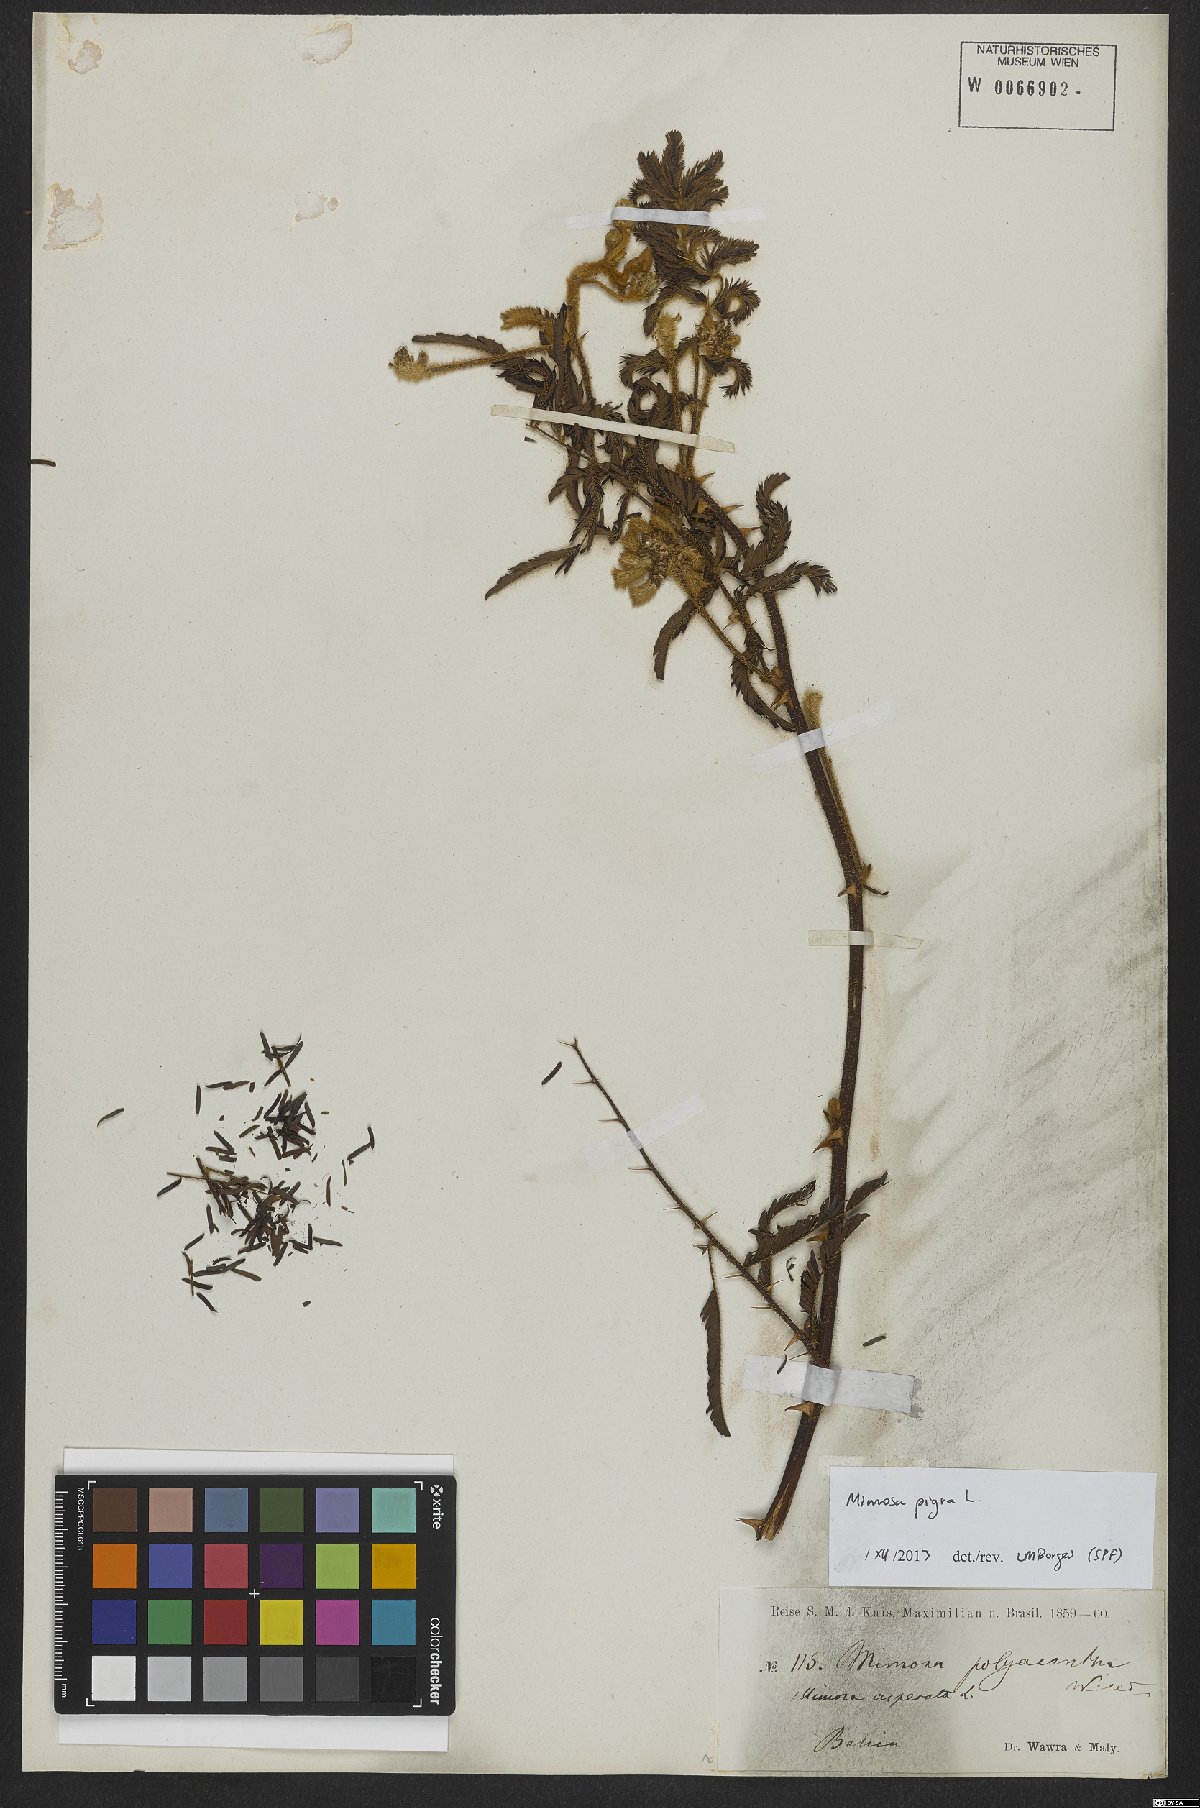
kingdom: Plantae
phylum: Tracheophyta
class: Magnoliopsida
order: Fabales
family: Fabaceae
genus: Mimosa
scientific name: Mimosa pigra
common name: Black mimosa
